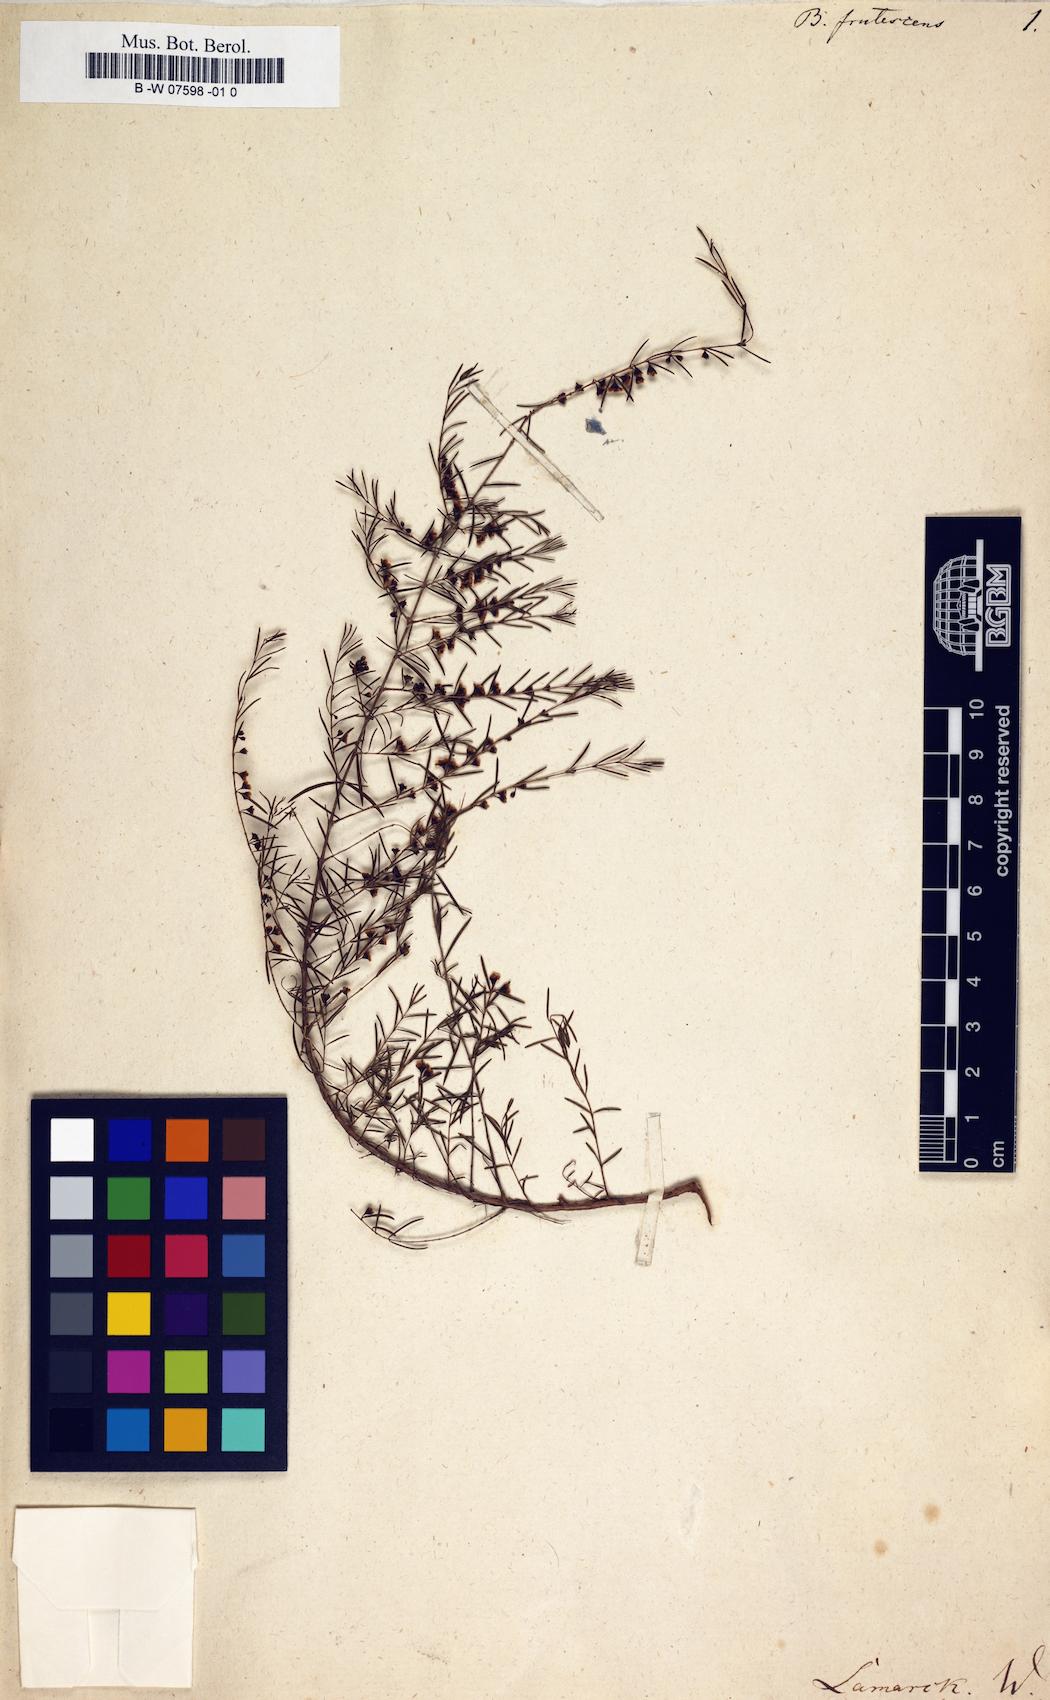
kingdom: Plantae
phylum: Tracheophyta
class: Magnoliopsida
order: Myrtales
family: Myrtaceae
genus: Baeckea
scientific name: Baeckea frutescens
